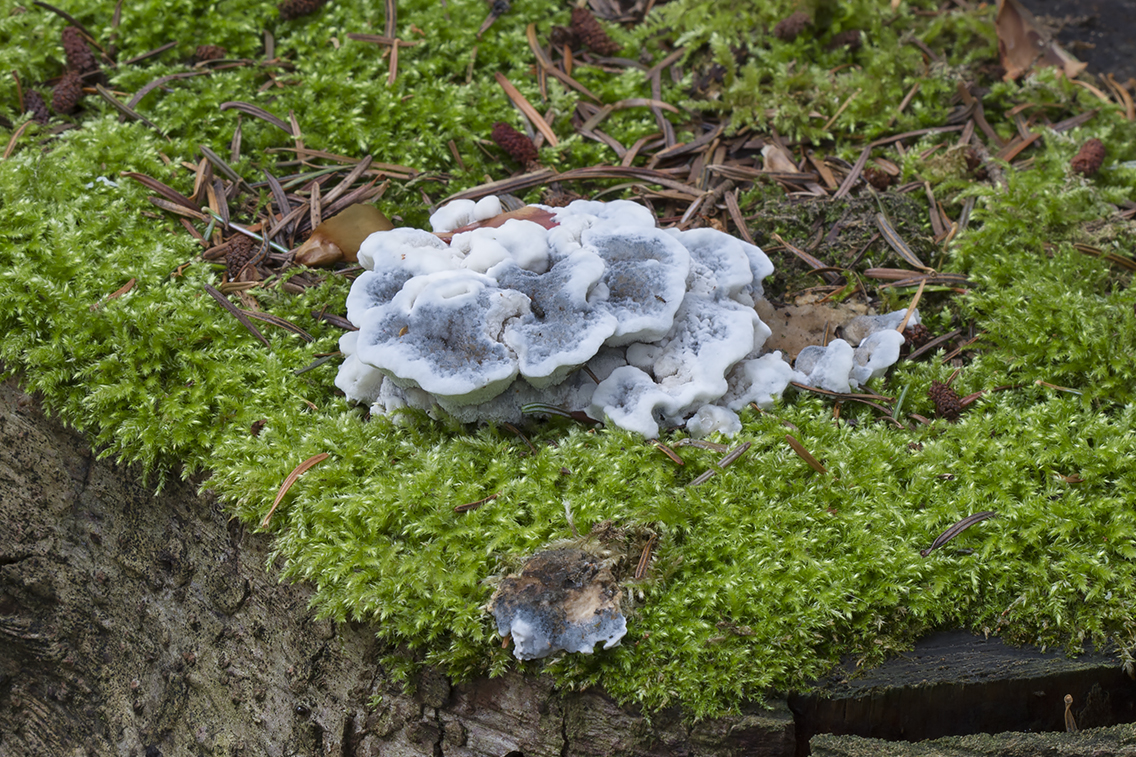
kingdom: Fungi
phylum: Basidiomycota
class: Agaricomycetes
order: Polyporales
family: Polyporaceae
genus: Cyanosporus
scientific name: Cyanosporus caesius
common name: blålig kødporesvamp
